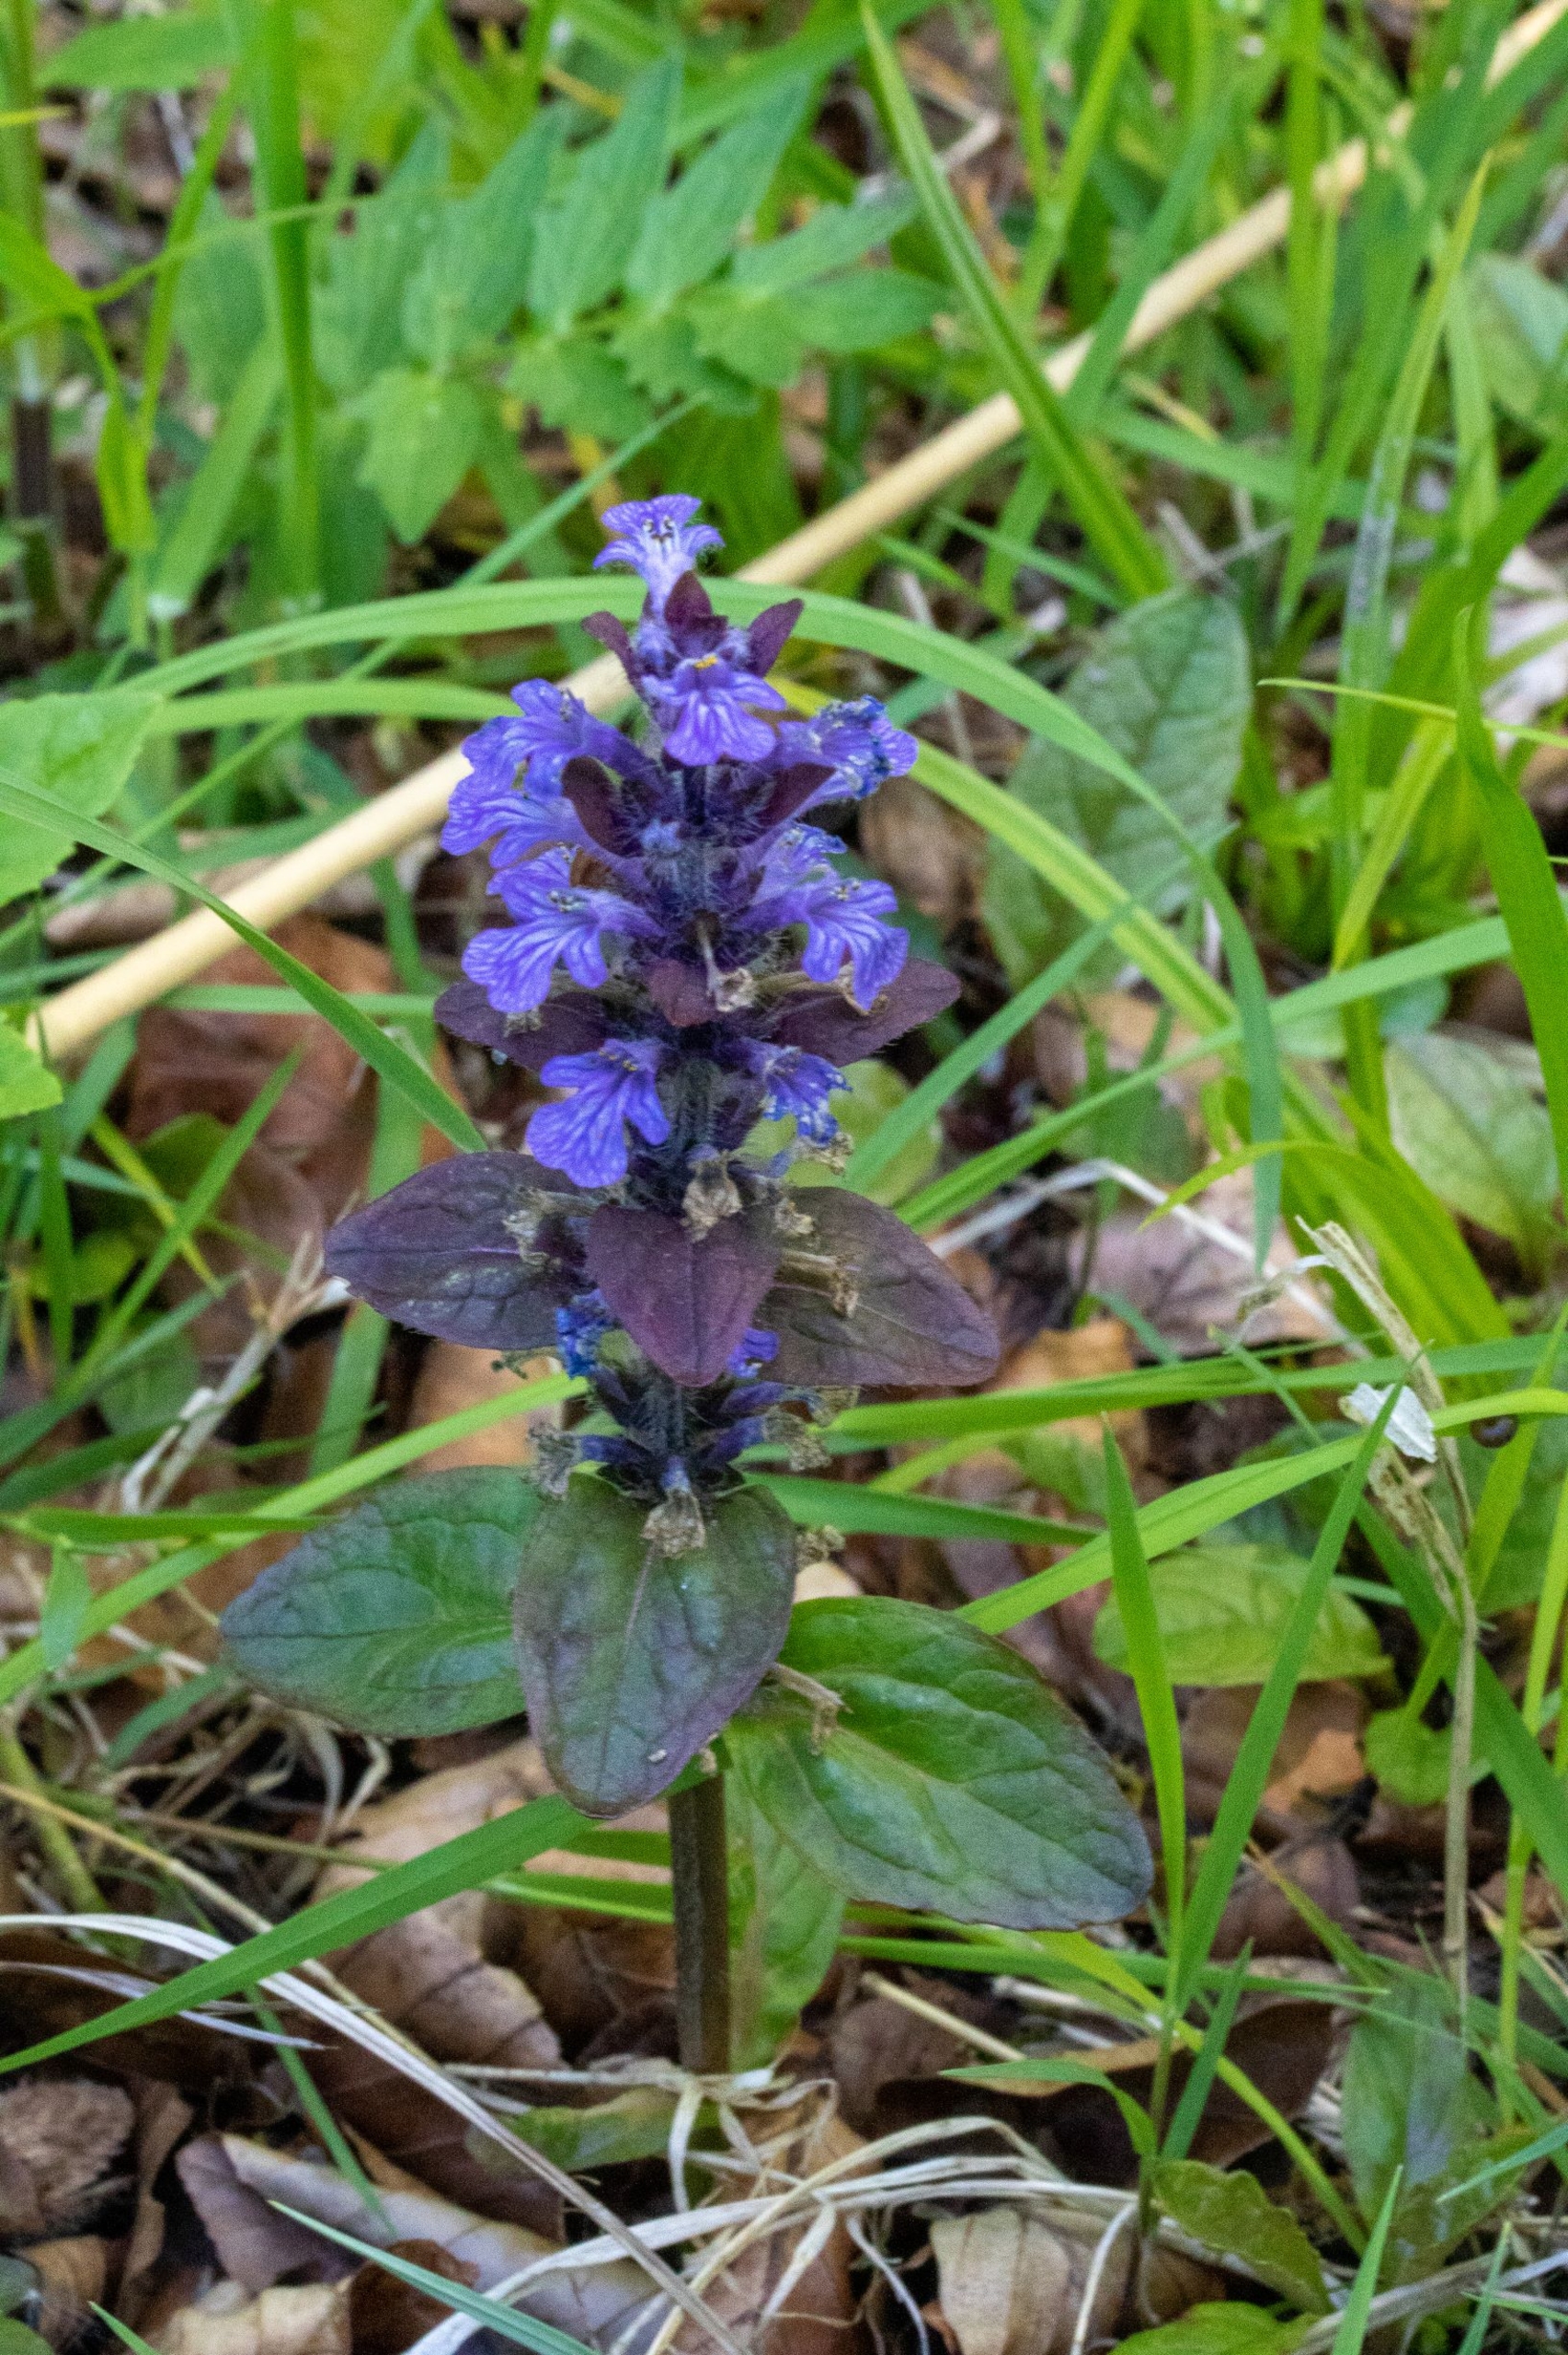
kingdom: Plantae
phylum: Tracheophyta
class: Magnoliopsida
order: Lamiales
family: Lamiaceae
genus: Ajuga
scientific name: Ajuga reptans
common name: Krybende læbeløs
